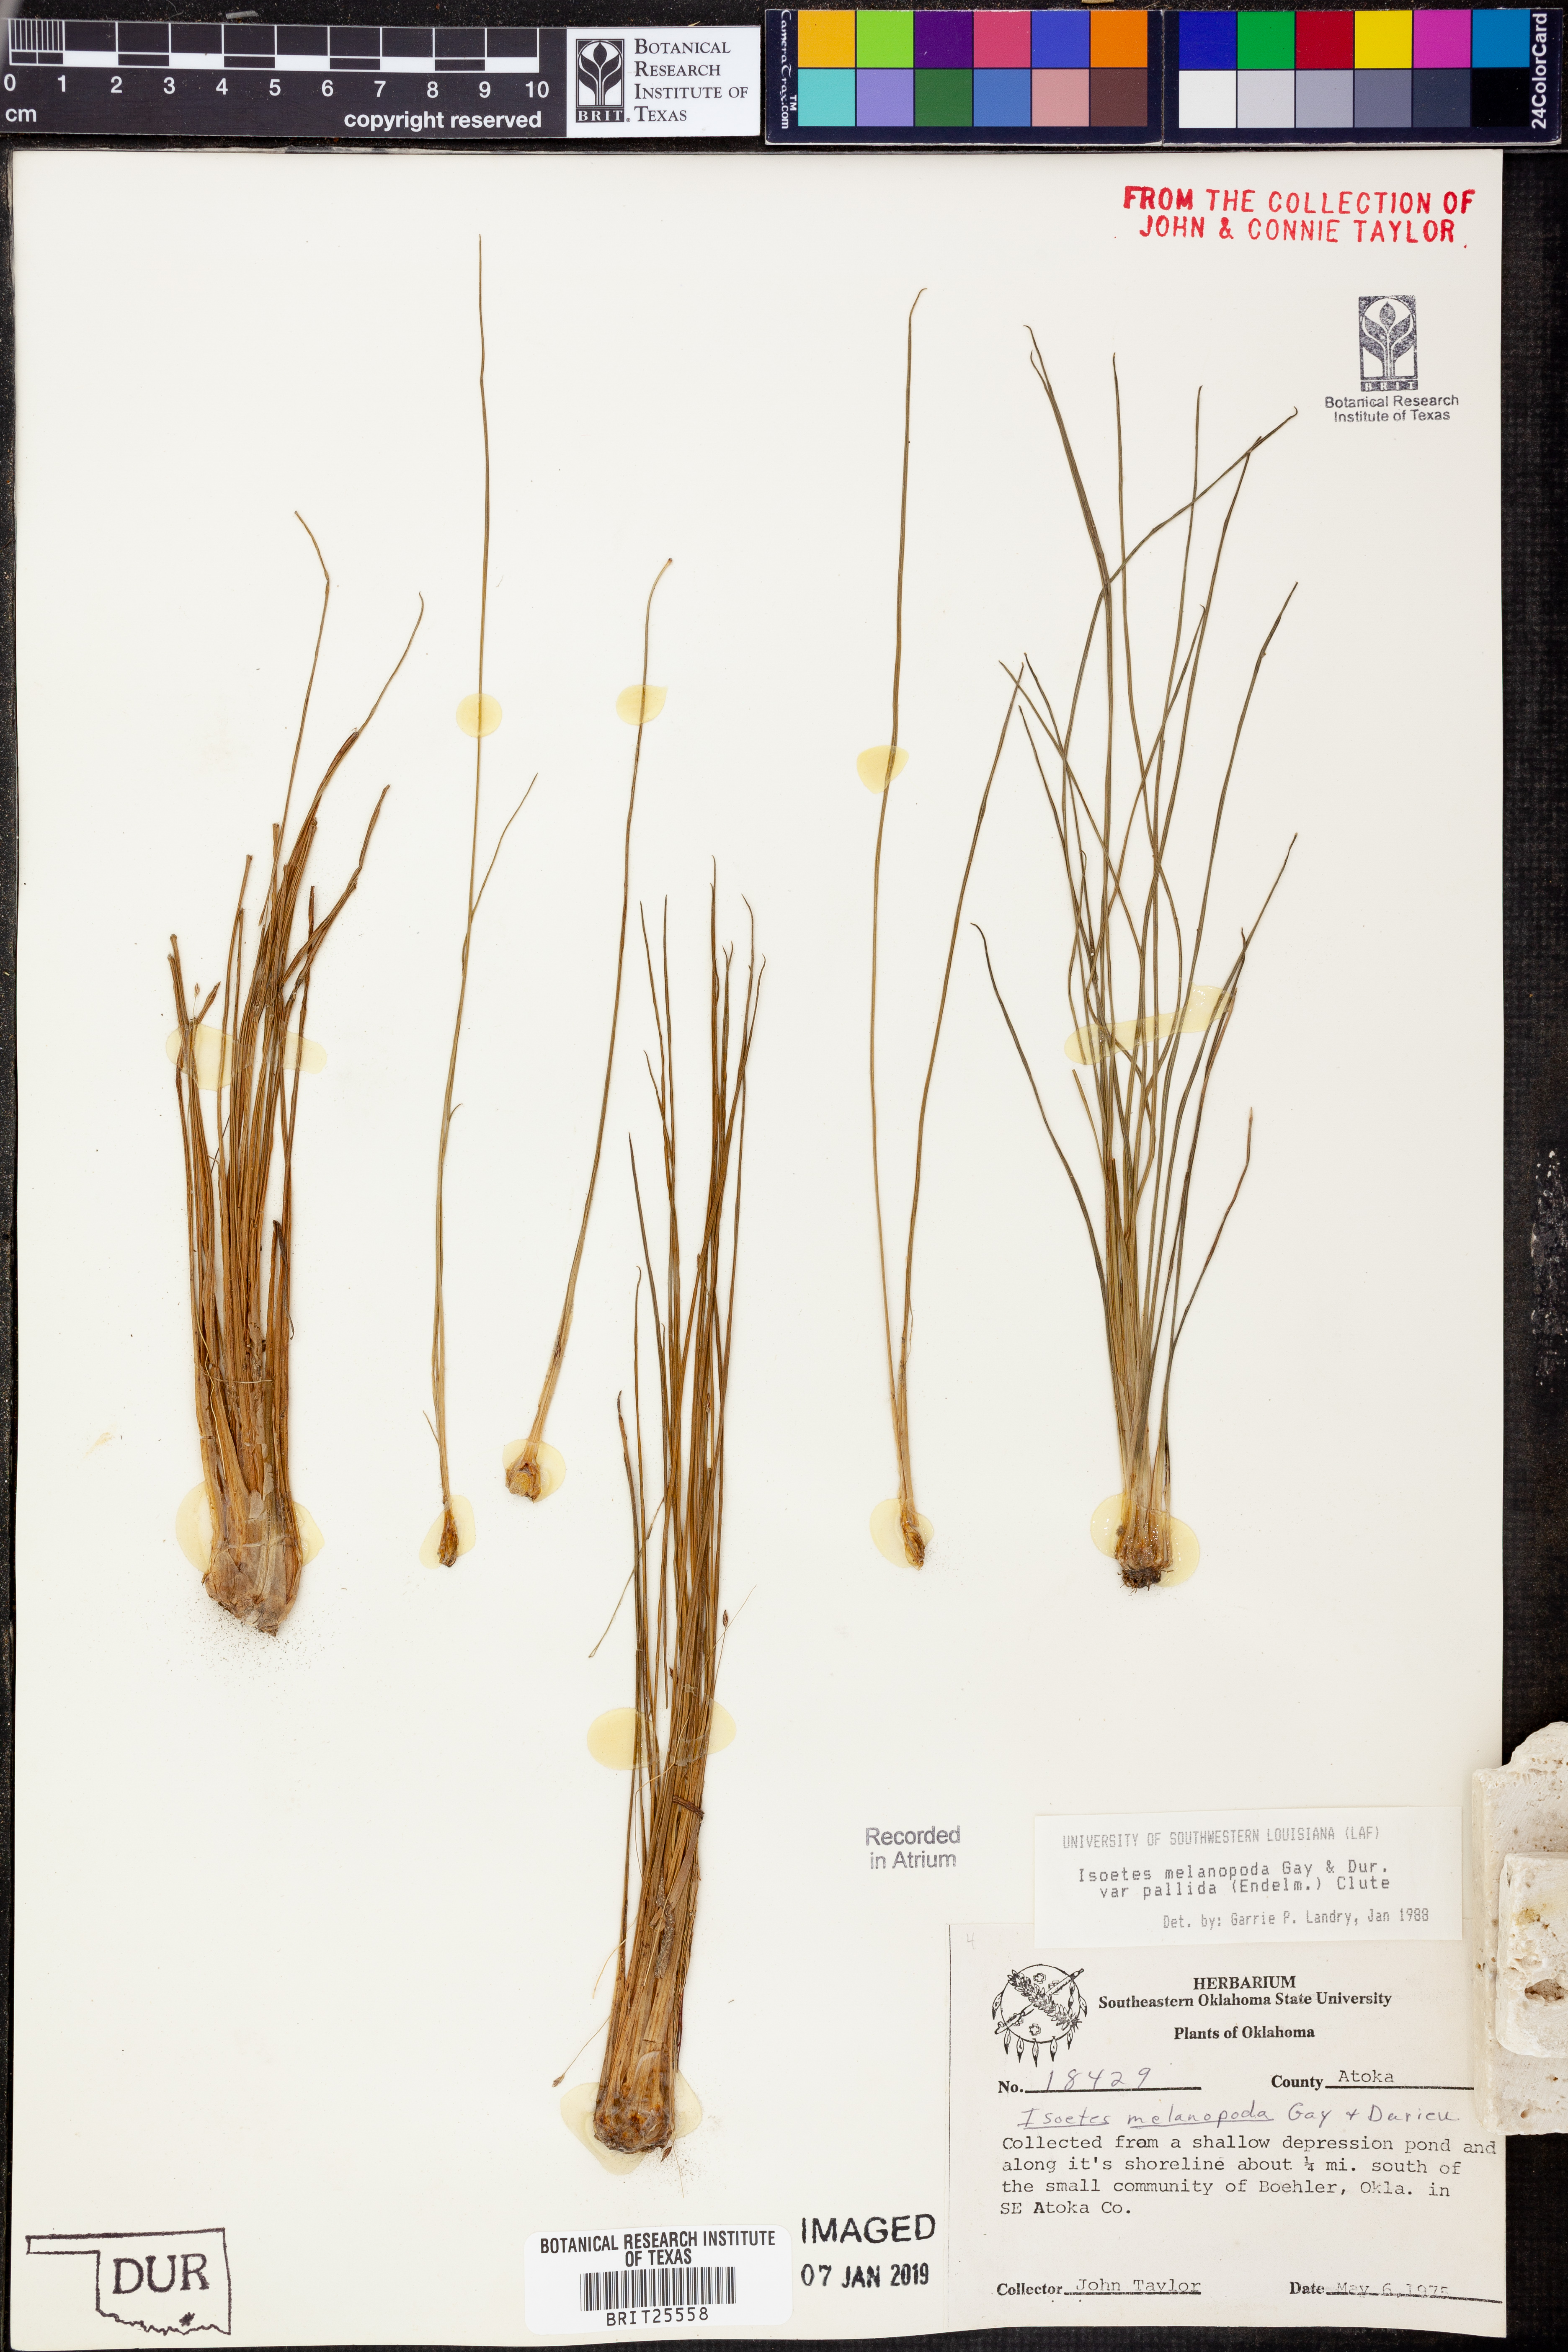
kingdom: Plantae
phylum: Tracheophyta
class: Lycopodiopsida
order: Isoetales
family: Isoetaceae
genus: Isoetes
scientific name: Isoetes melanopoda
